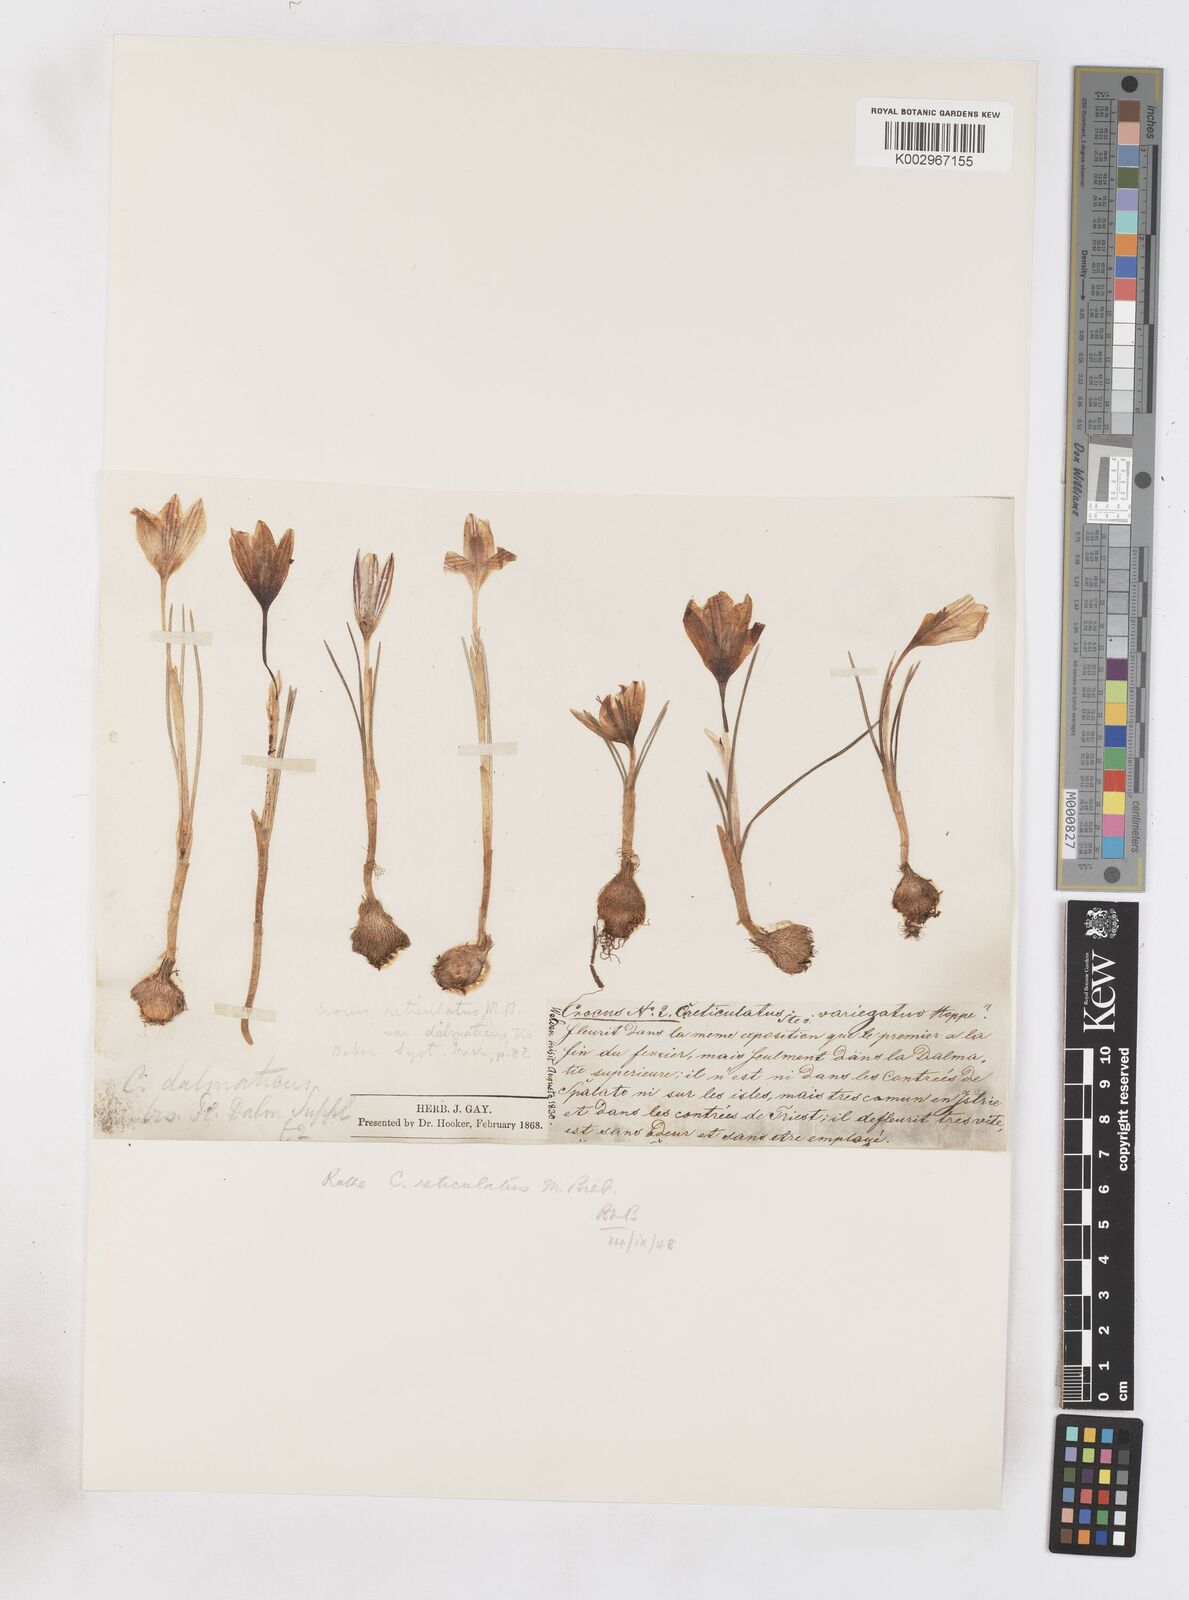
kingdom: Plantae
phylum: Tracheophyta
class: Liliopsida
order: Asparagales
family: Iridaceae
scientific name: Iridaceae
